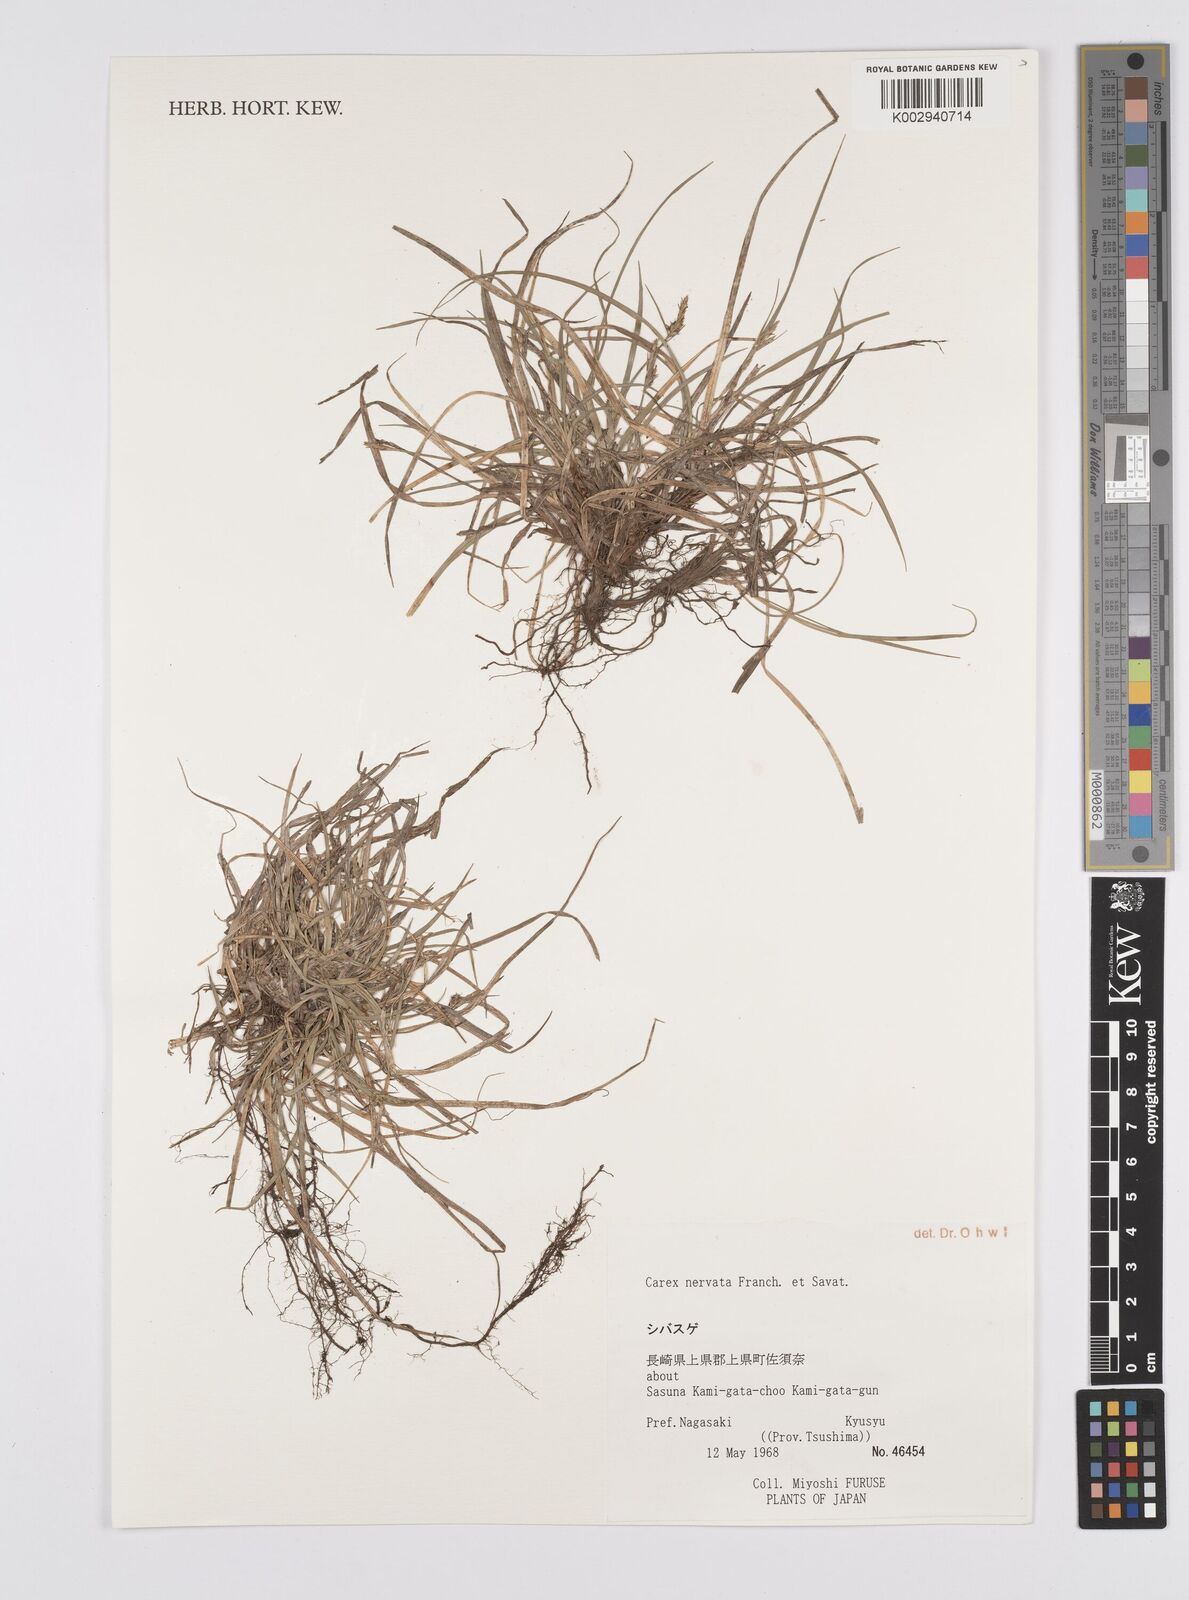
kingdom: Plantae
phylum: Tracheophyta
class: Liliopsida
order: Poales
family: Cyperaceae
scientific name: Cyperaceae
